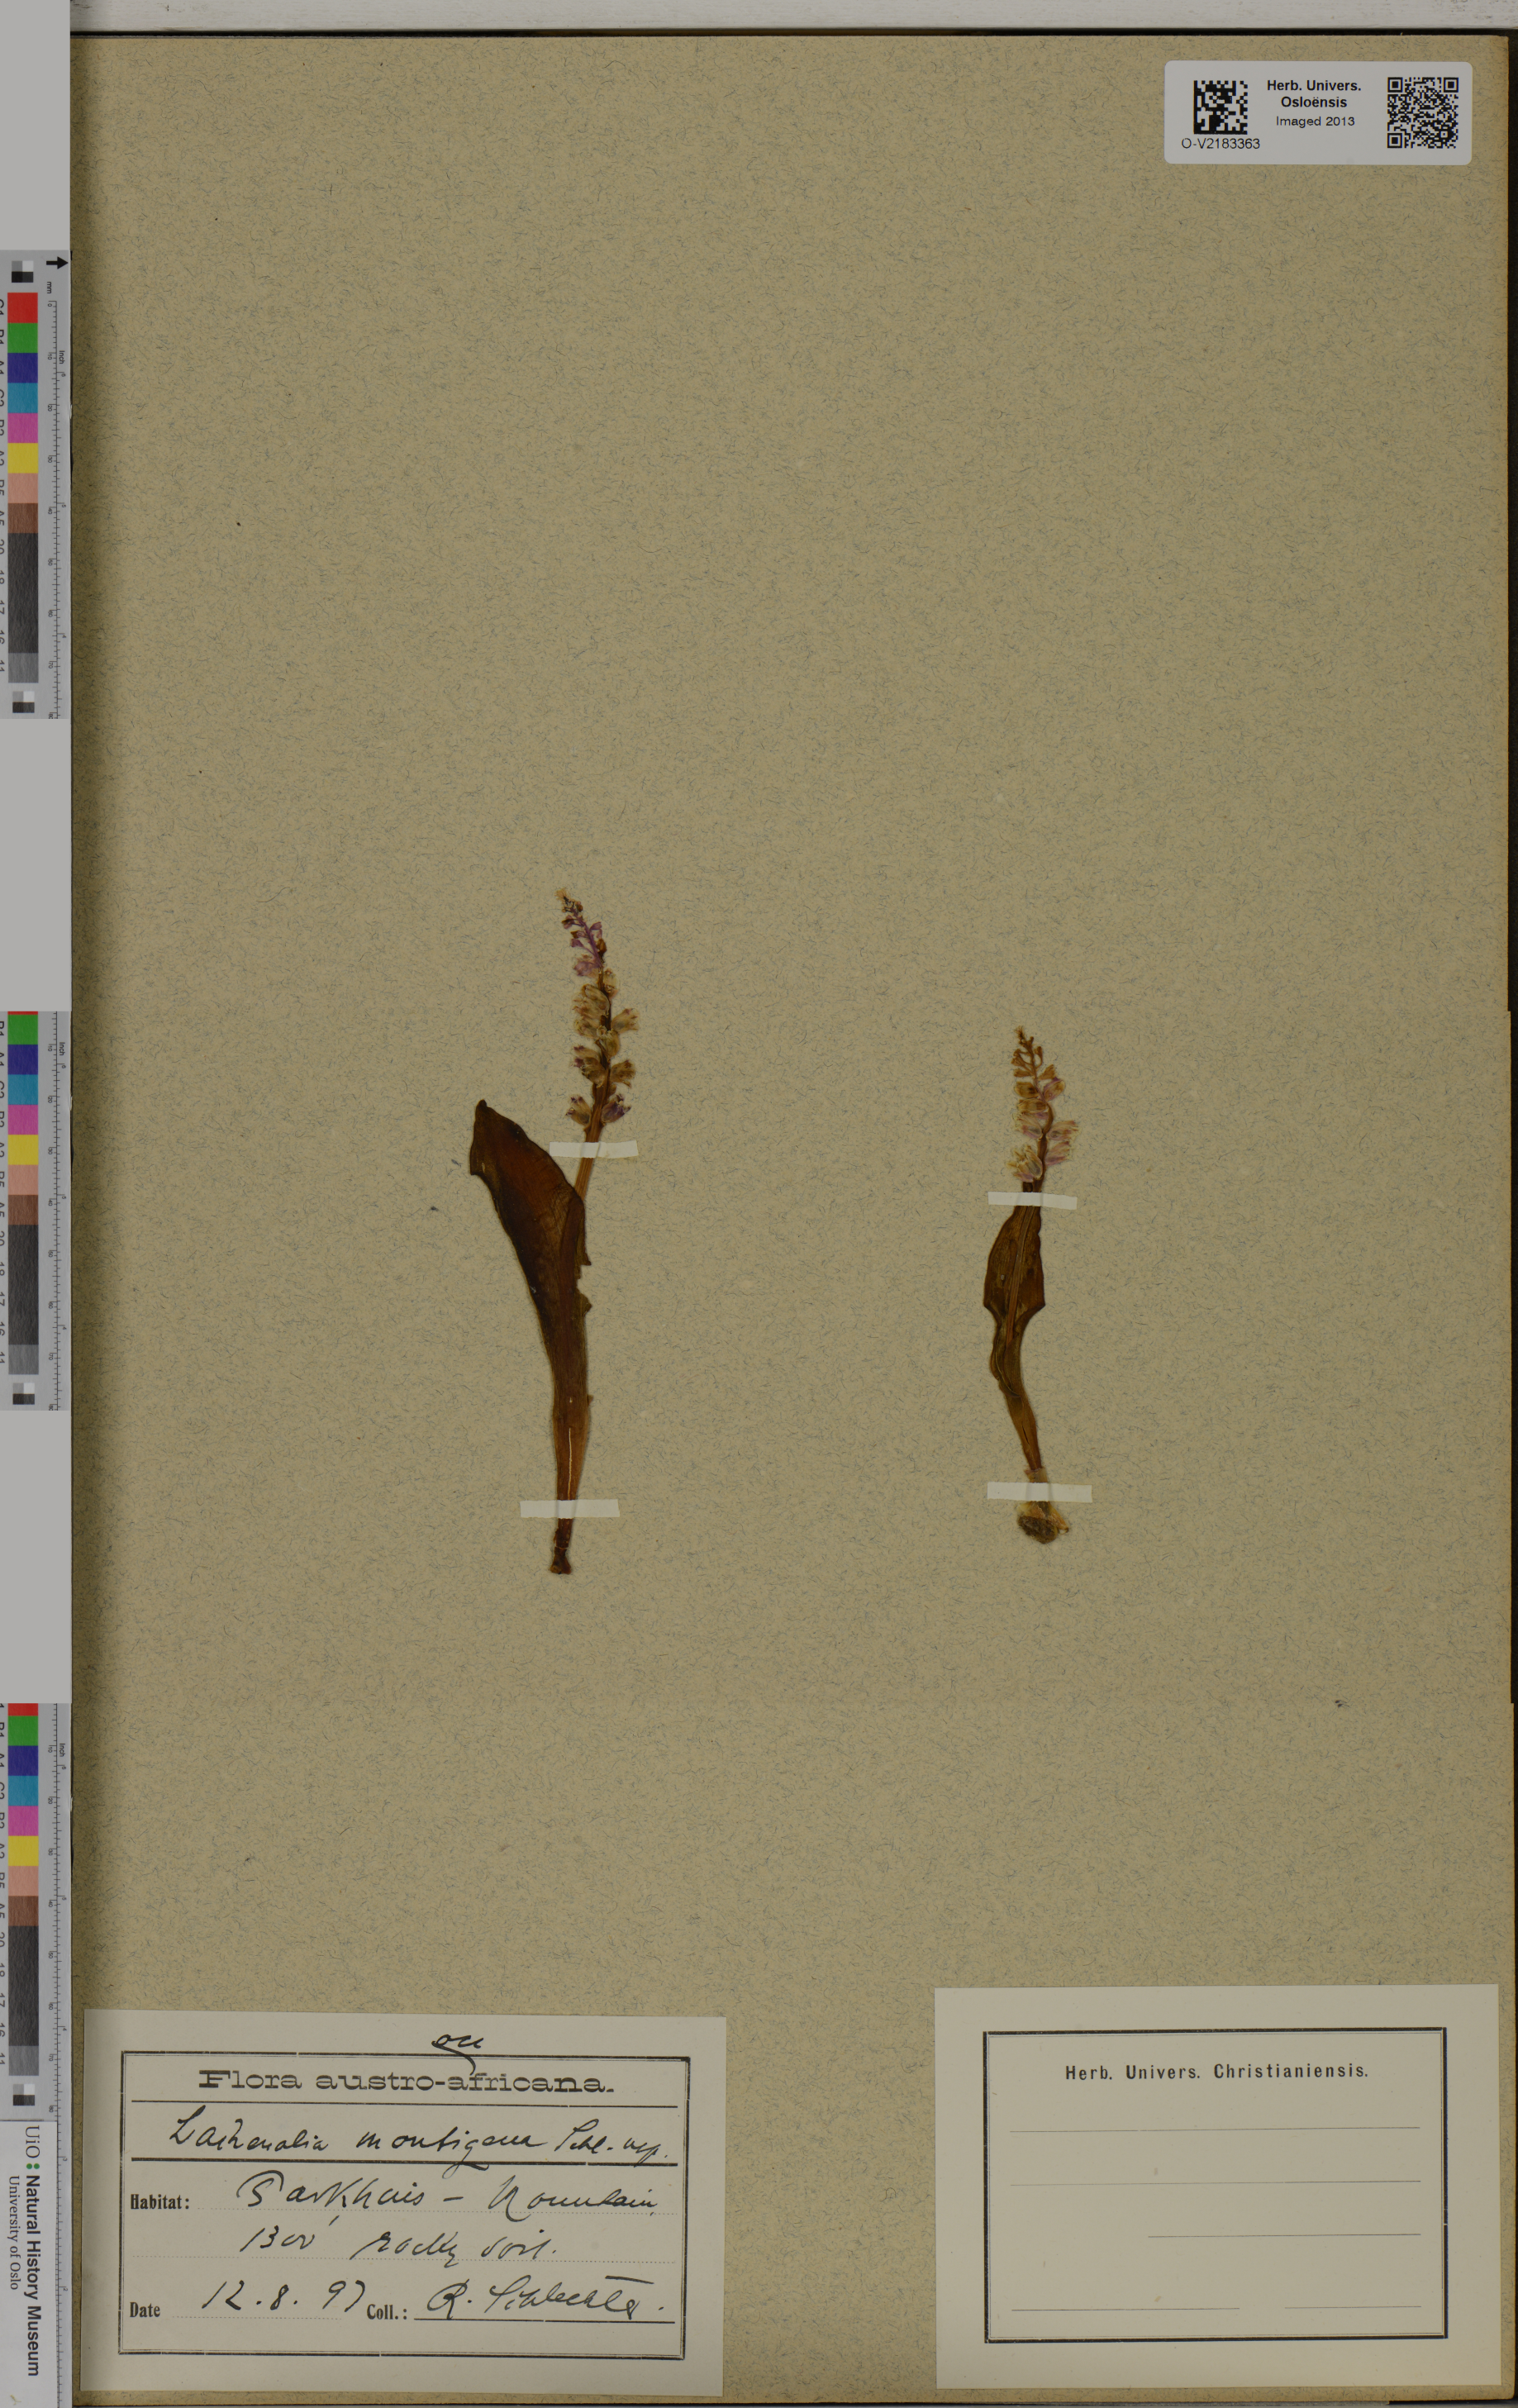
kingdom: Plantae
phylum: Tracheophyta
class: Liliopsida
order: Asparagales
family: Asparagaceae
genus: Lachenalia
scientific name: Lachenalia montana
